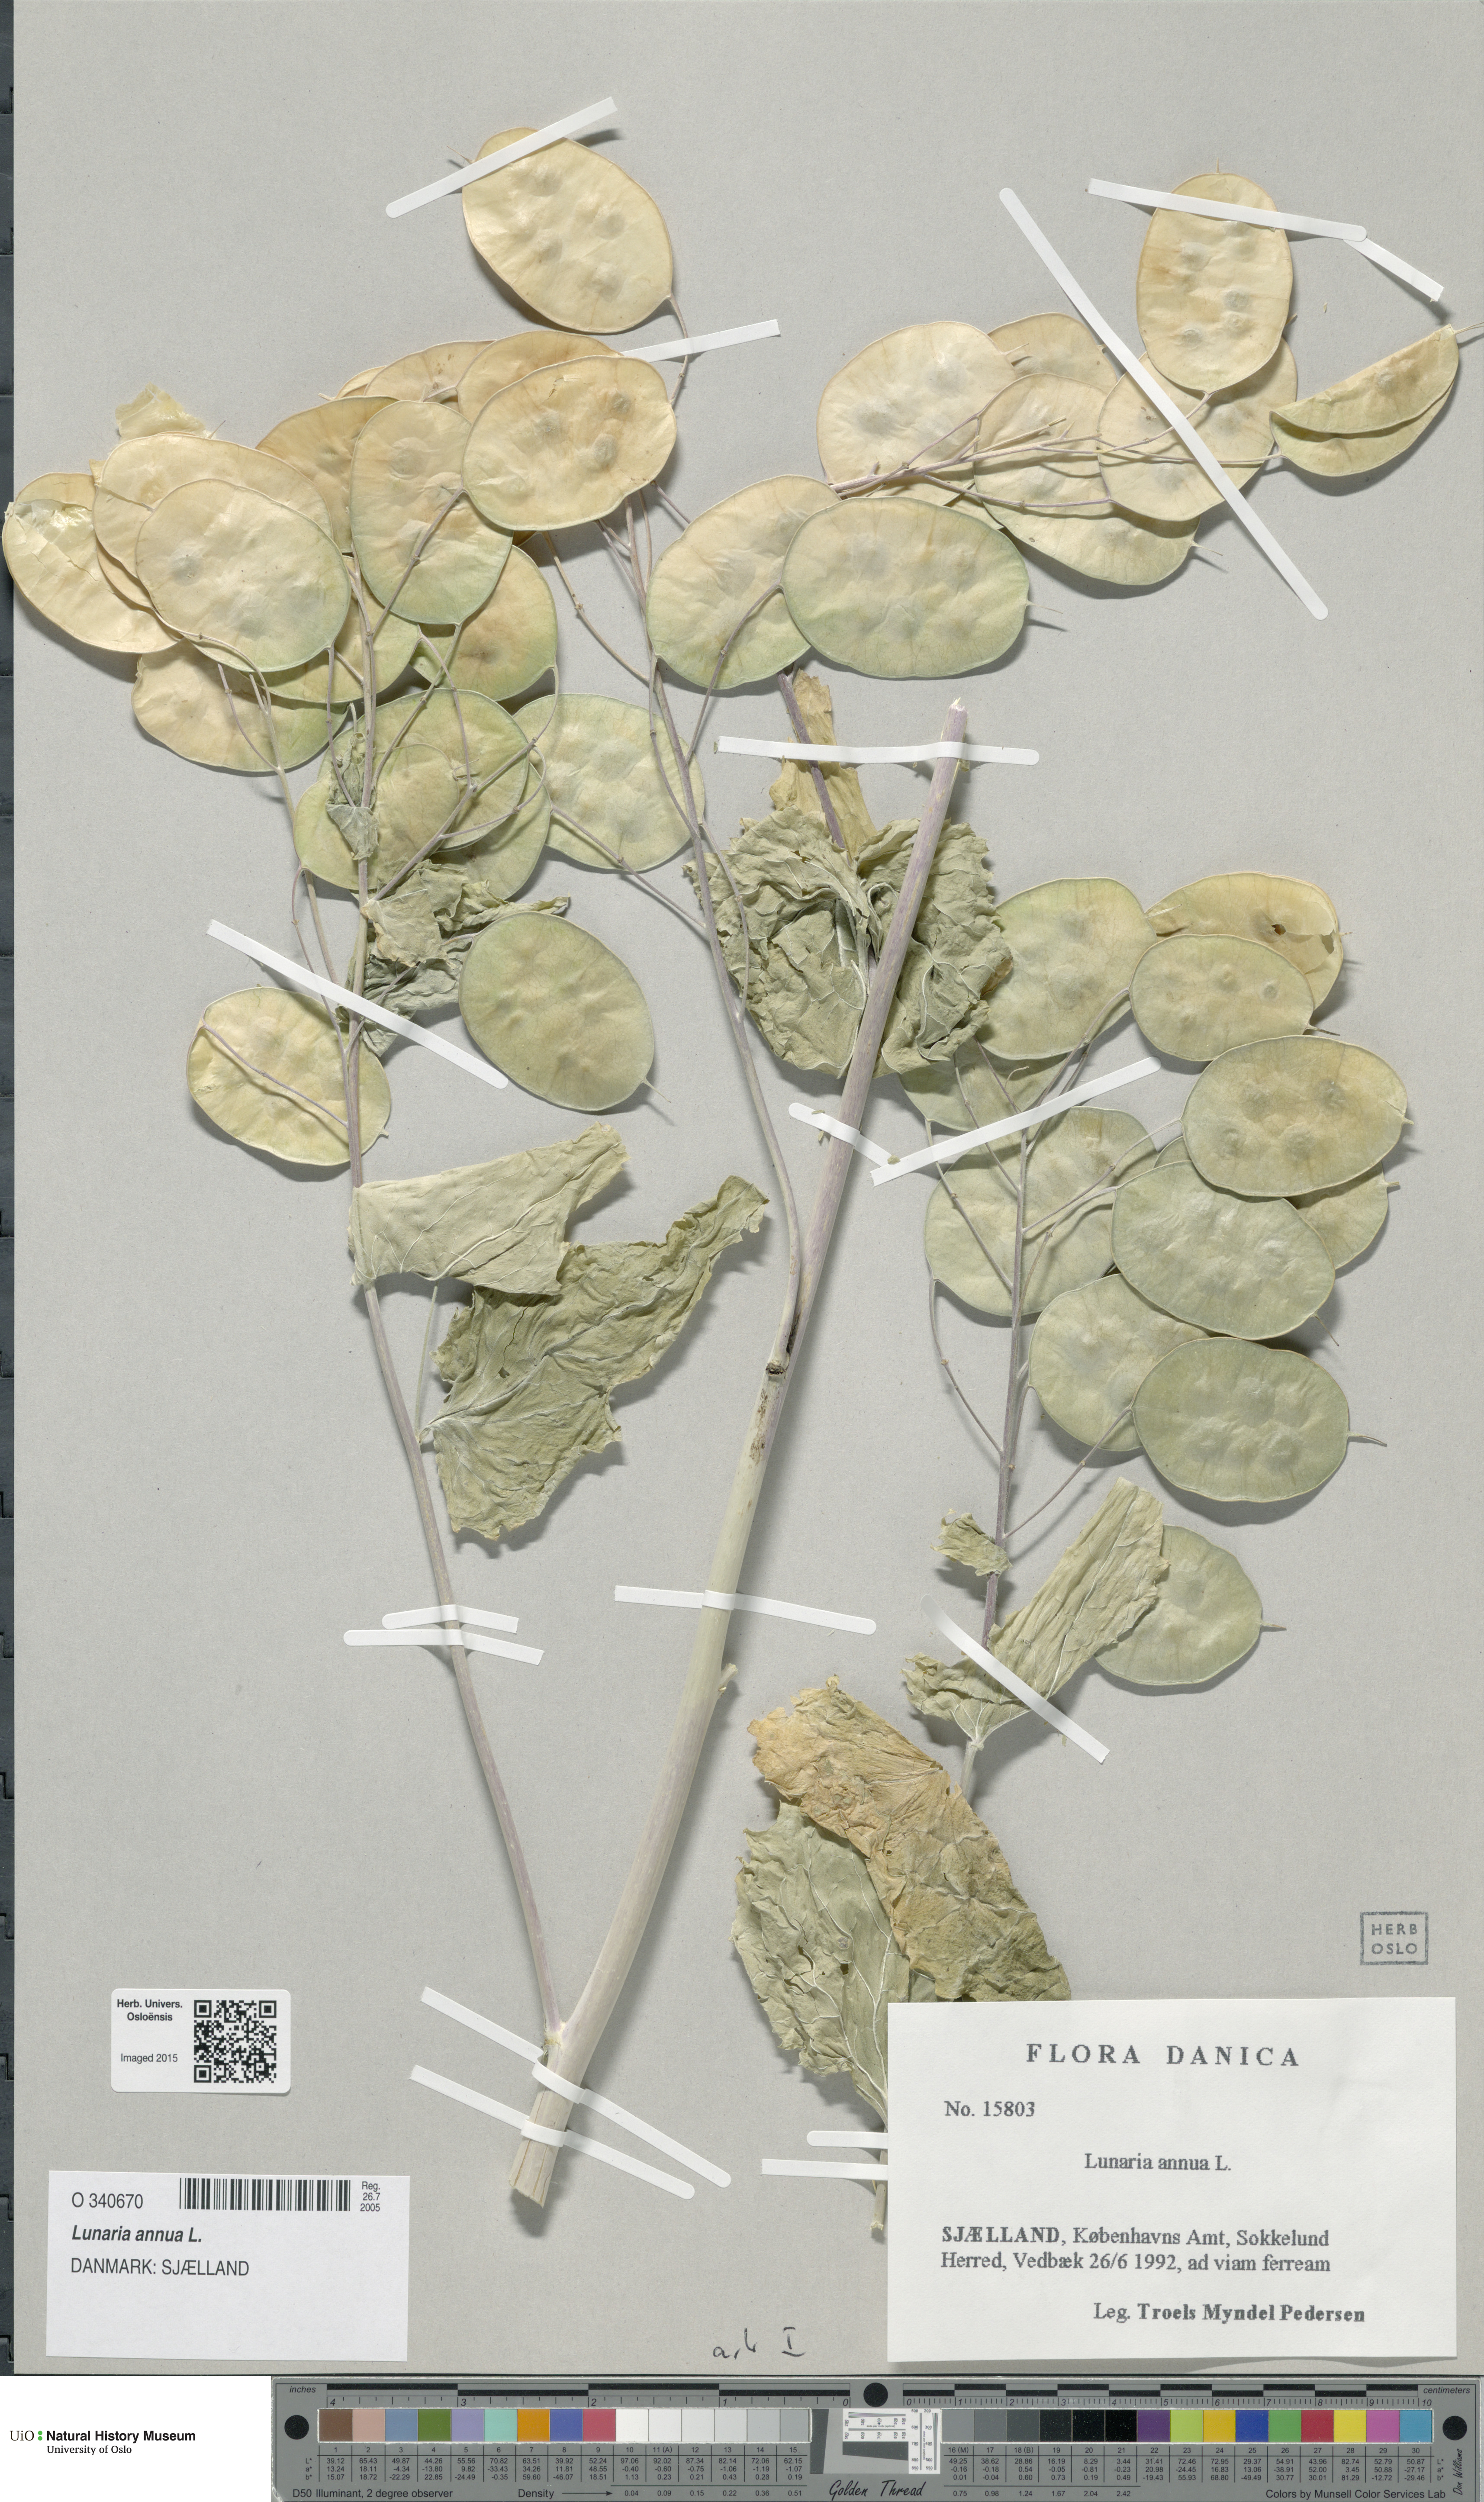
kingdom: Plantae
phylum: Tracheophyta
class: Magnoliopsida
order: Brassicales
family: Brassicaceae
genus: Lunaria
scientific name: Lunaria annua
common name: Honesty
